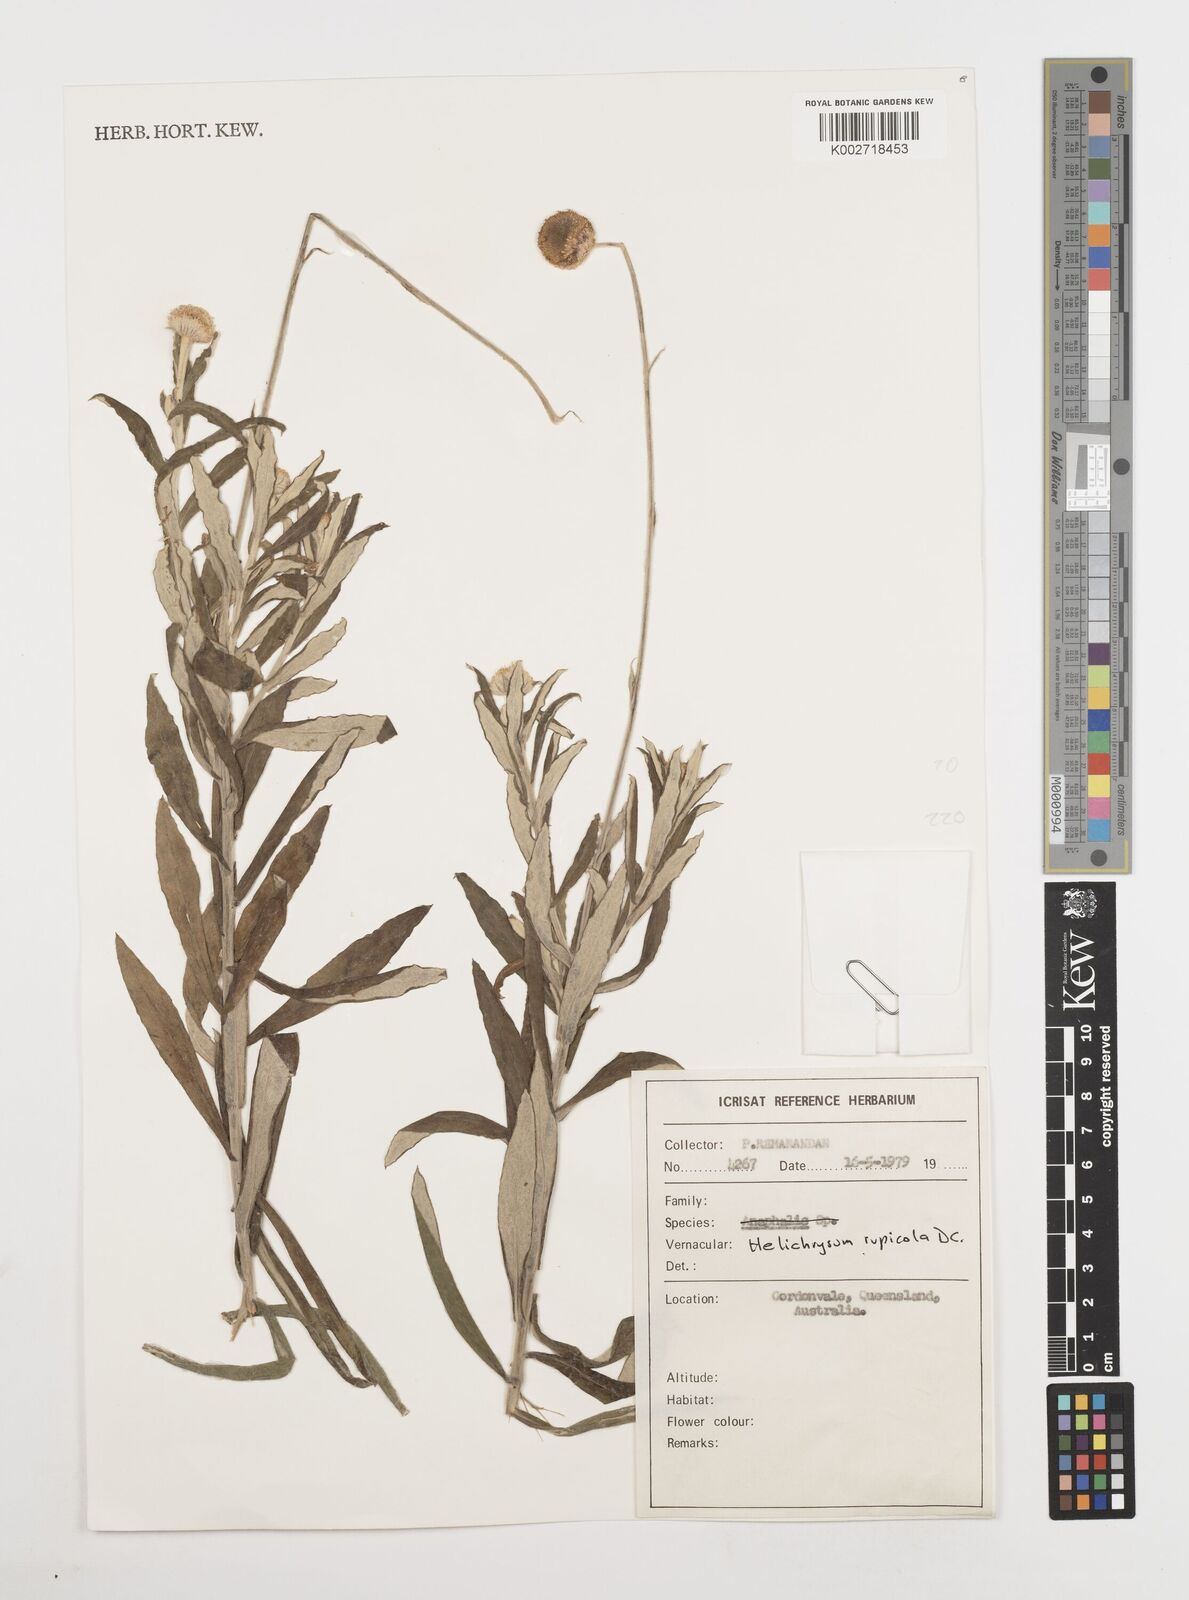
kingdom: Plantae
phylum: Tracheophyta
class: Magnoliopsida
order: Asterales
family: Asteraceae
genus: Coronidium
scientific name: Coronidium rupicola
